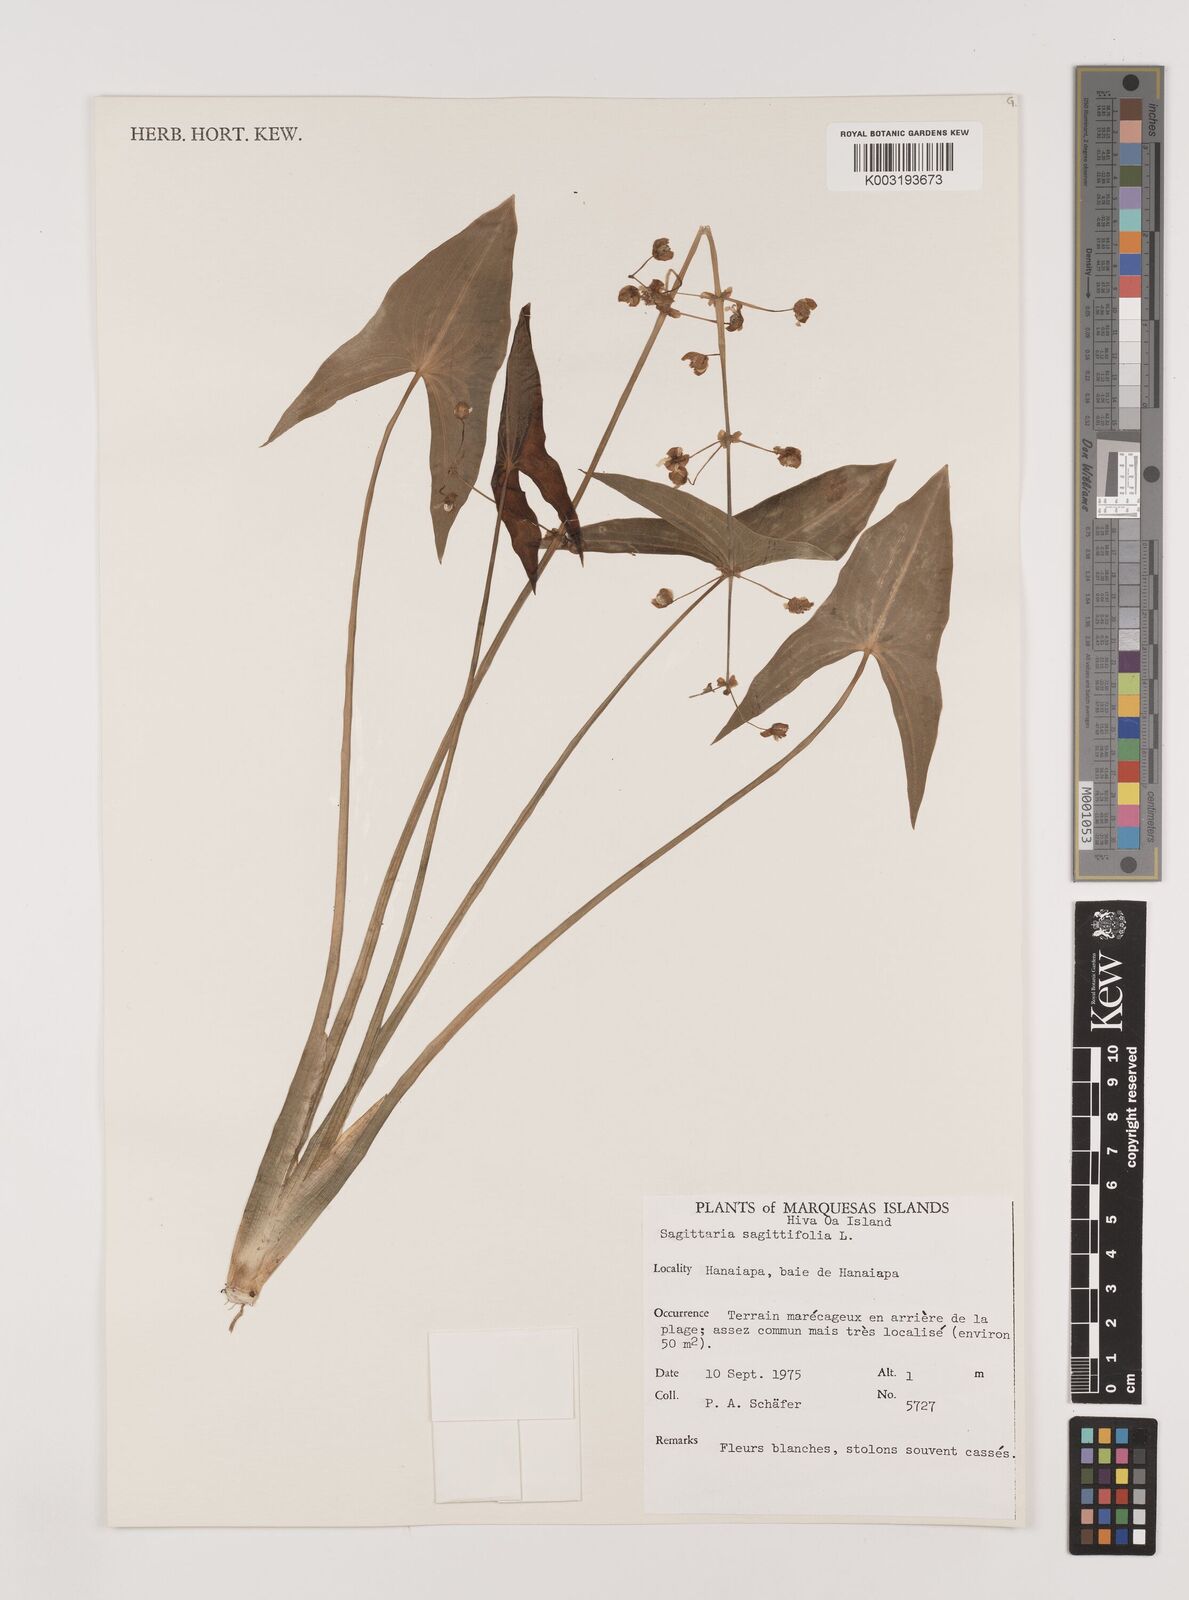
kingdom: Plantae
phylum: Tracheophyta
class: Liliopsida
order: Alismatales
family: Alismataceae
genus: Sagittaria
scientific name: Sagittaria sagittifolia
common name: Arrowhead
